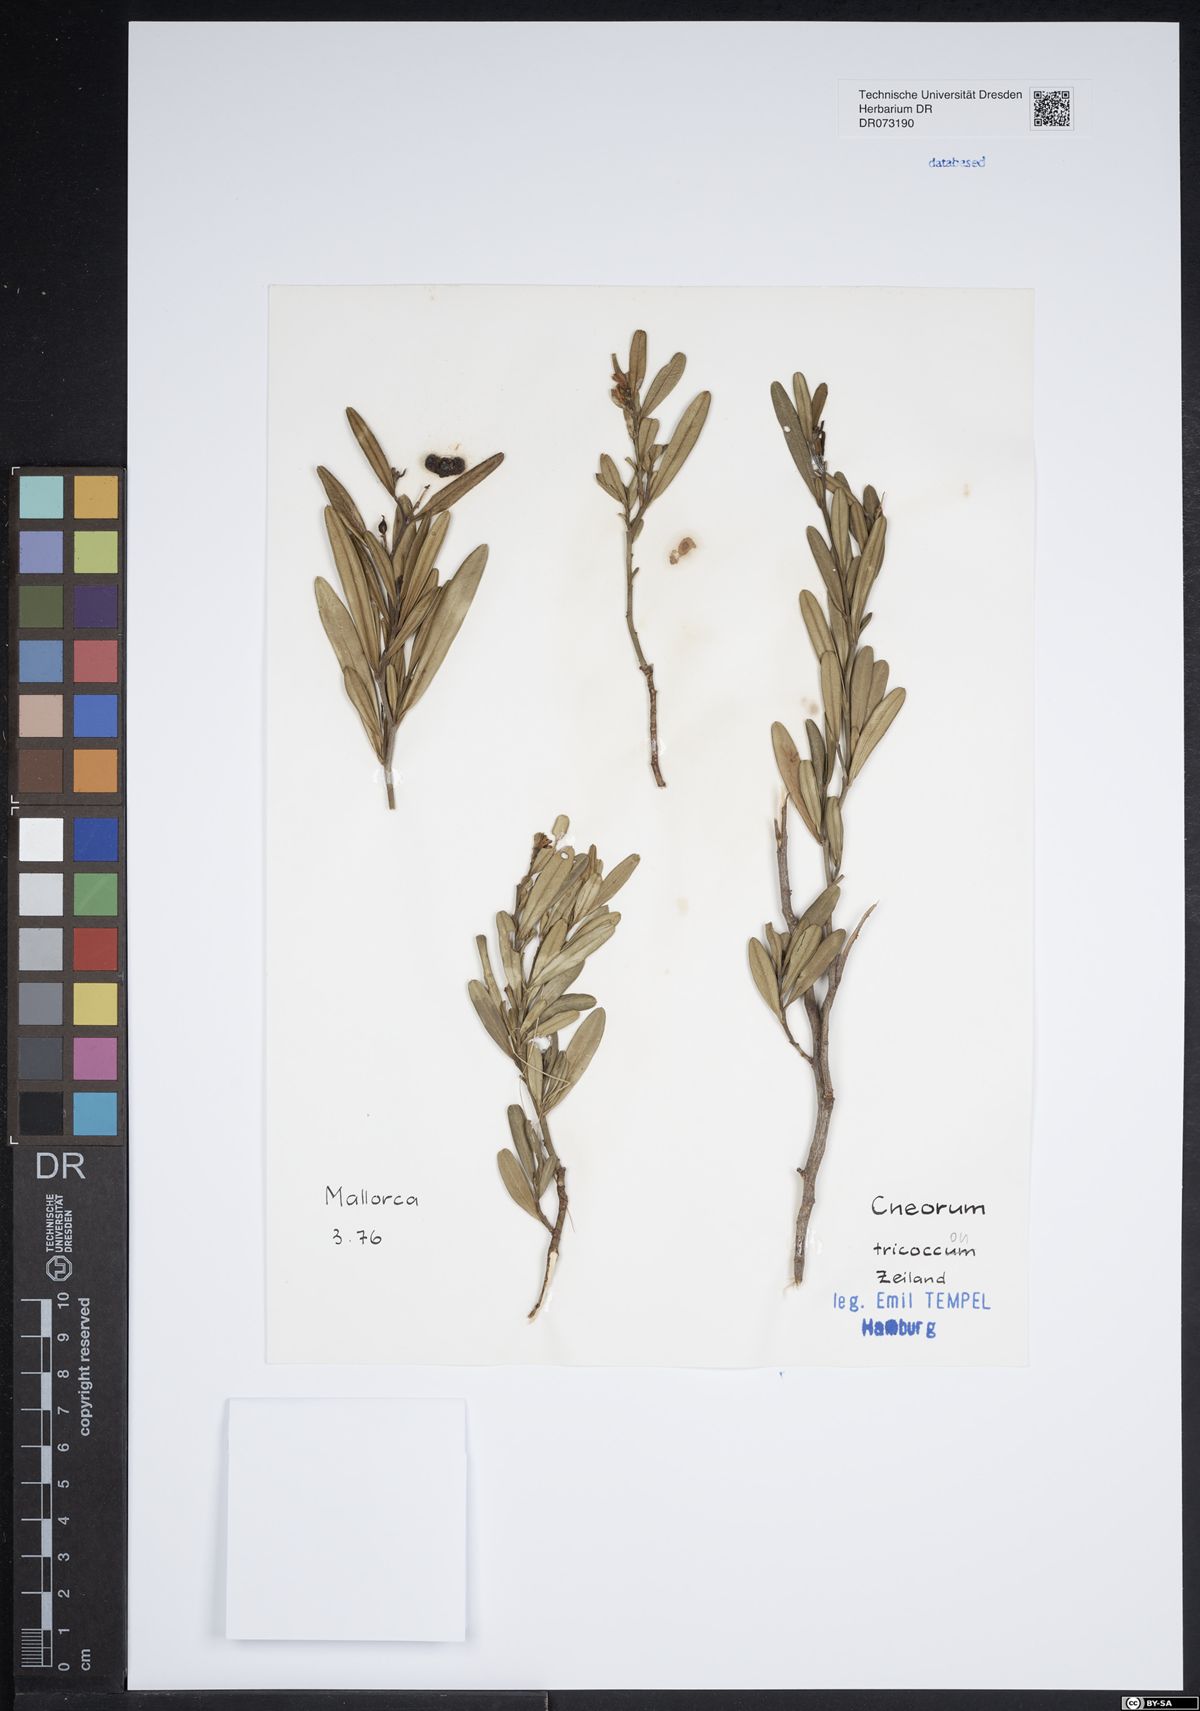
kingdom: Plantae
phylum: Tracheophyta
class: Magnoliopsida
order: Sapindales
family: Rutaceae
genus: Cneorum
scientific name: Cneorum tricoccon
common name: Spurge olive
